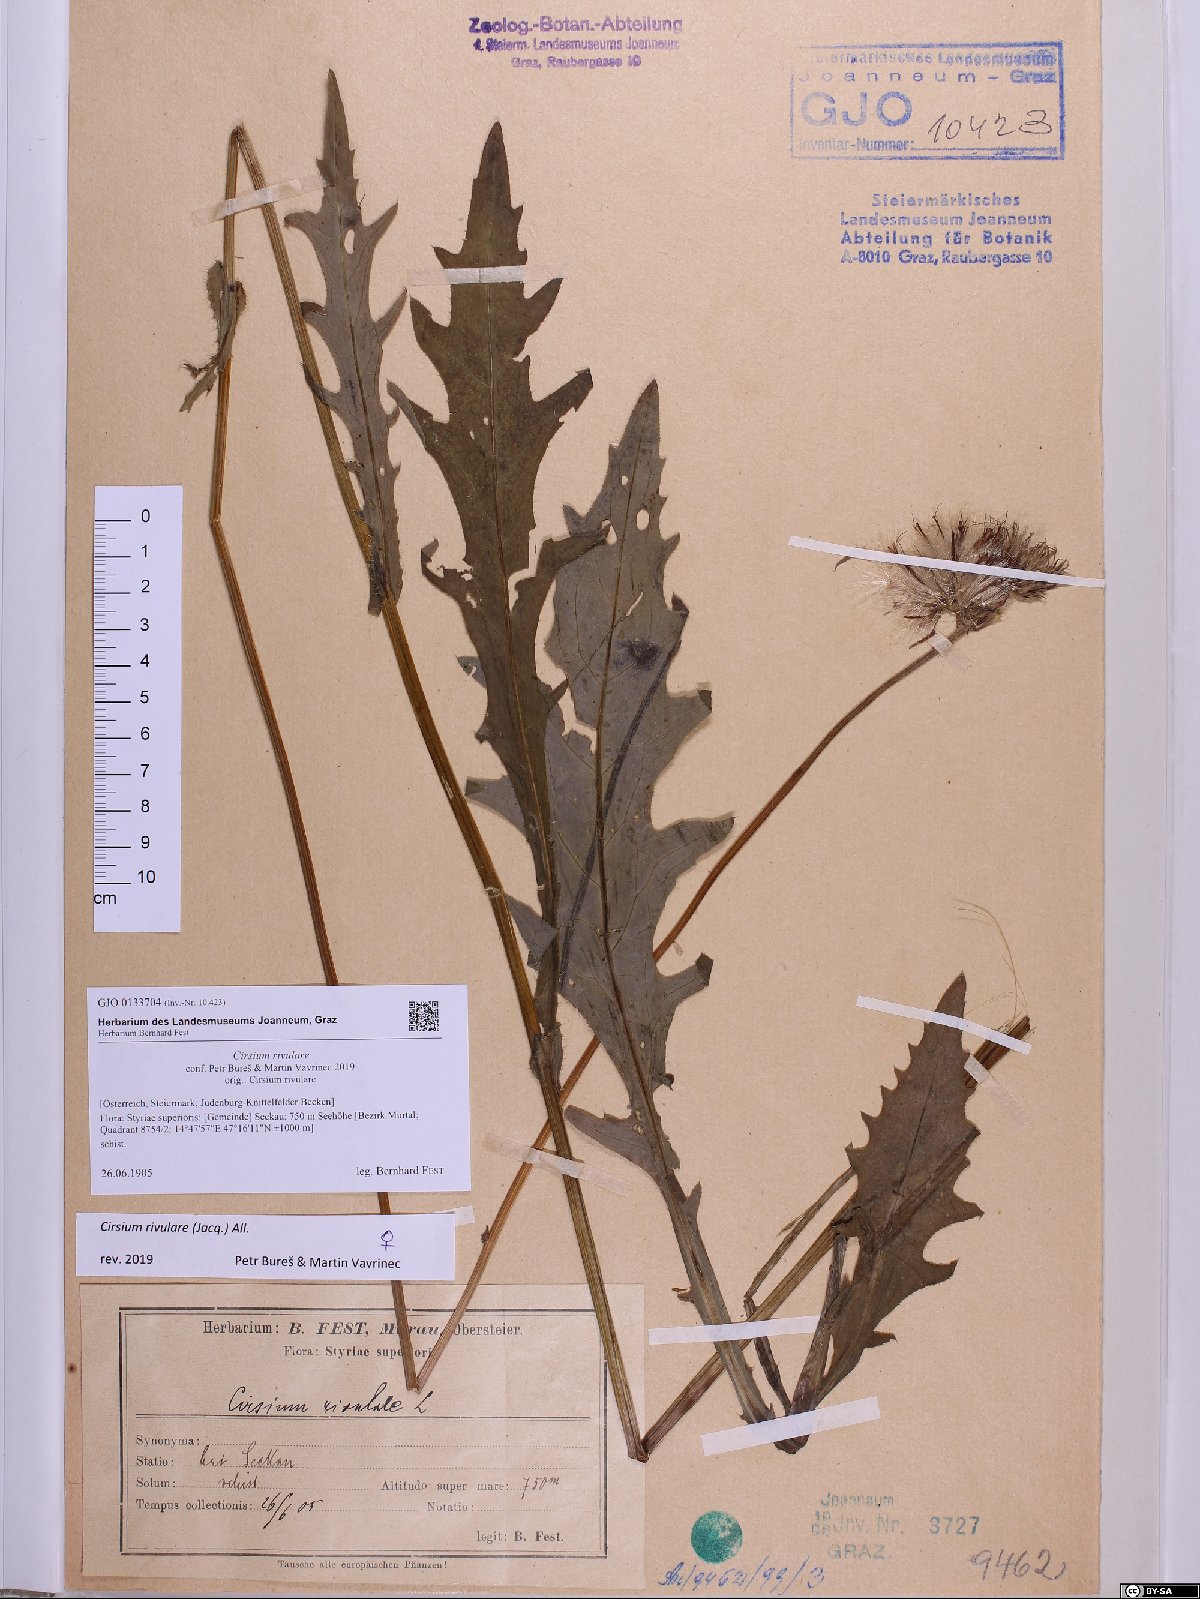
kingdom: Plantae
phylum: Tracheophyta
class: Magnoliopsida
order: Asterales
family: Asteraceae
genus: Cirsium
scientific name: Cirsium rivulare
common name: Brook thistle
